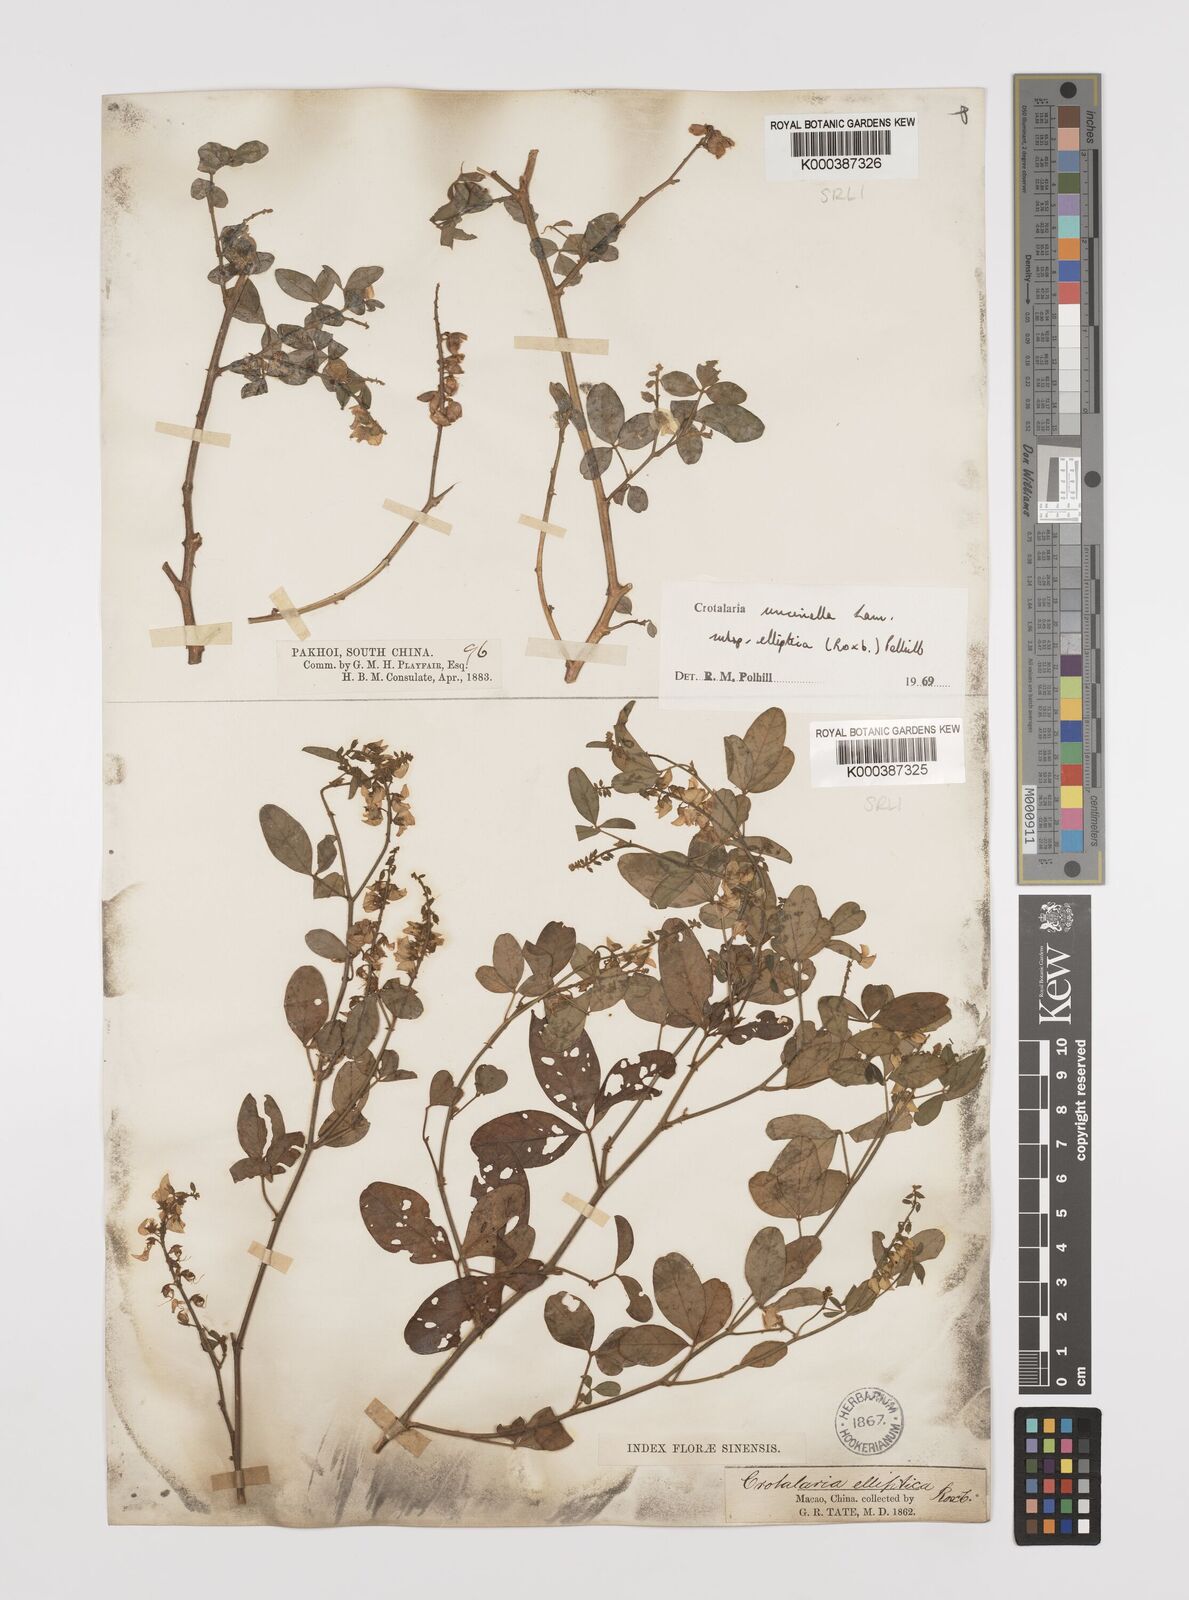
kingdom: Plantae
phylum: Tracheophyta
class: Magnoliopsida
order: Fabales
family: Fabaceae
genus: Crotalaria
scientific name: Crotalaria uncinella
